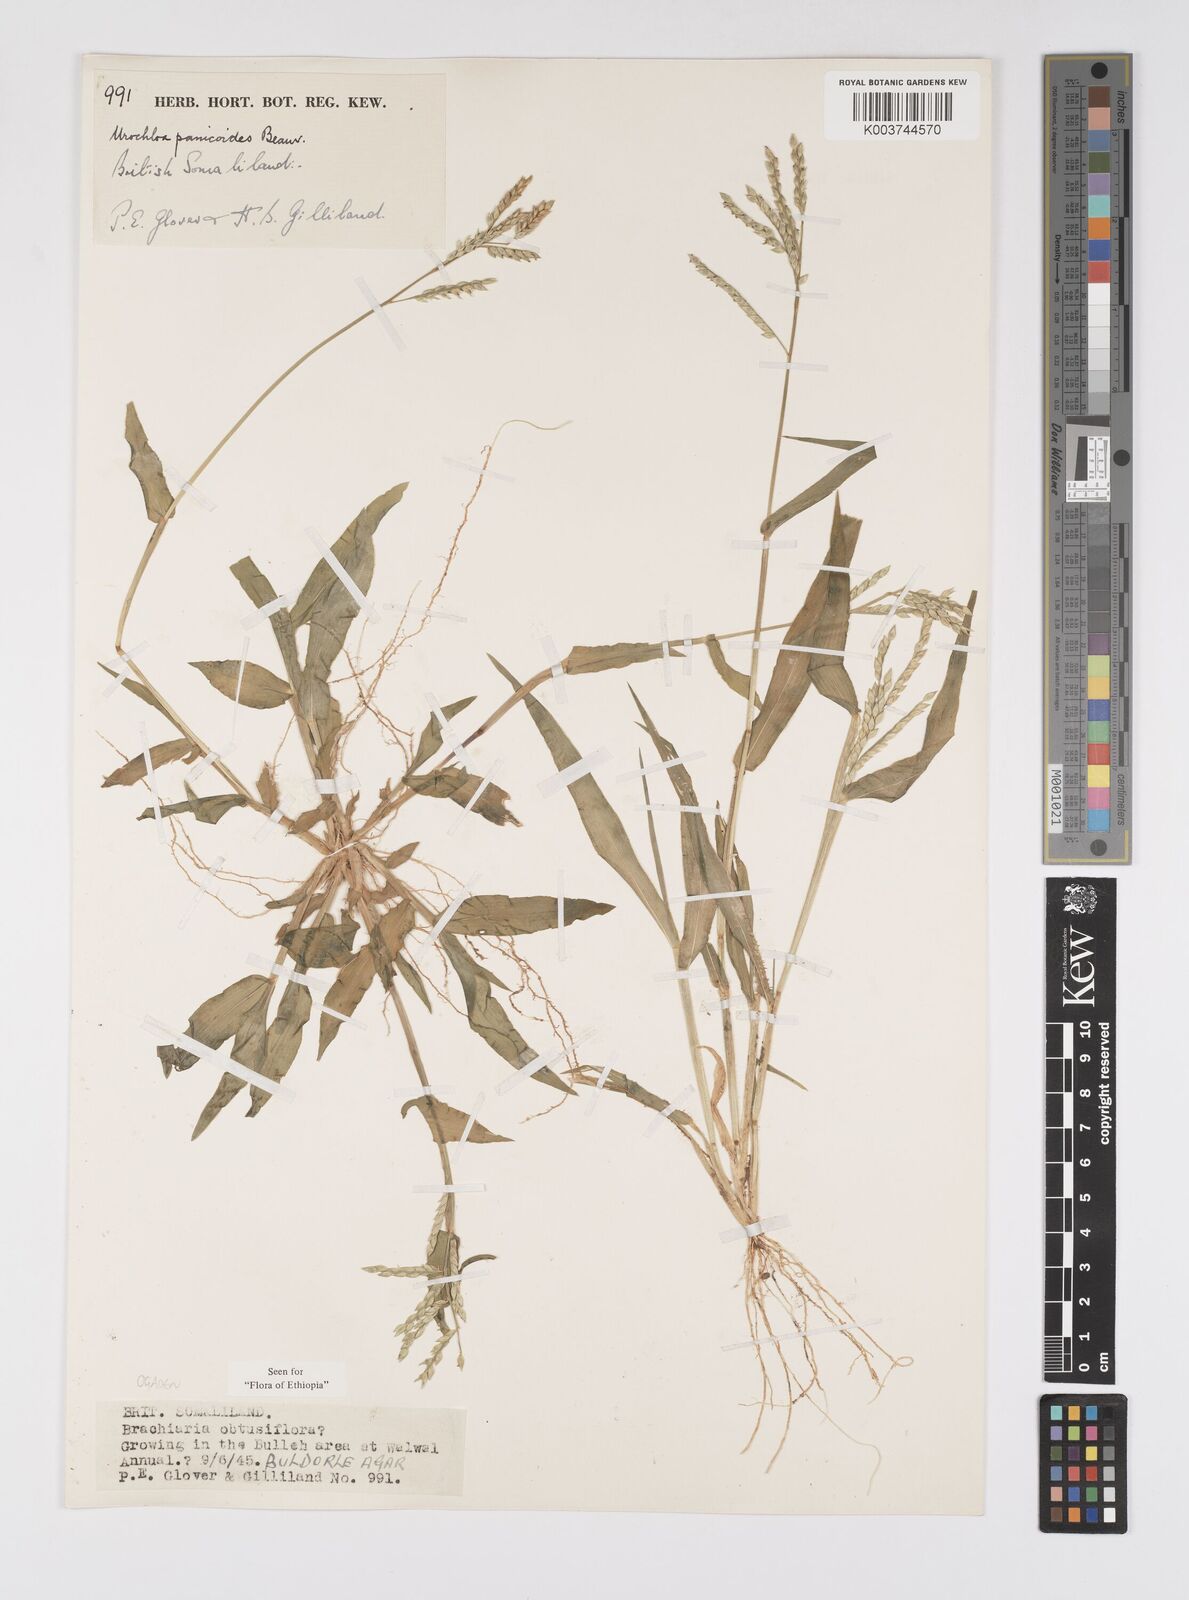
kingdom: Plantae
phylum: Tracheophyta
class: Liliopsida
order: Poales
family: Poaceae
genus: Urochloa
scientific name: Urochloa panicoides
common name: Sharp-flowered signal-grass
